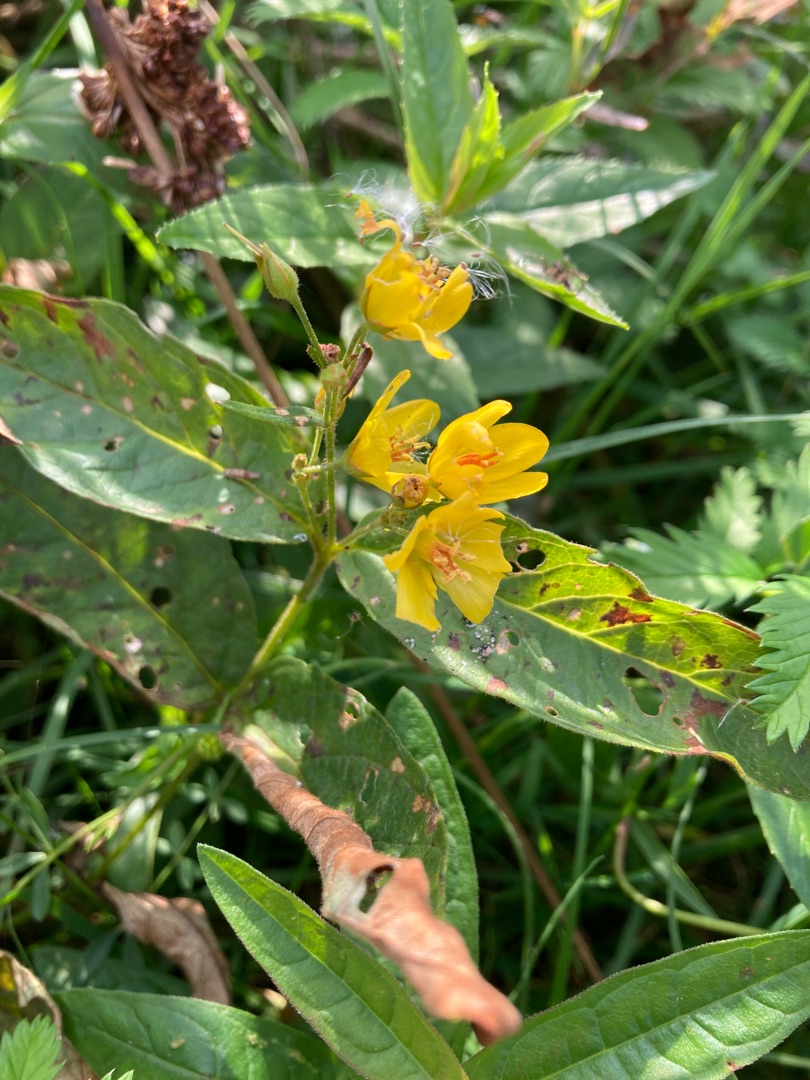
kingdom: Plantae
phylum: Tracheophyta
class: Magnoliopsida
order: Ericales
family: Primulaceae
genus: Lysimachia
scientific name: Lysimachia vulgaris
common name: Almindelig fredløs
